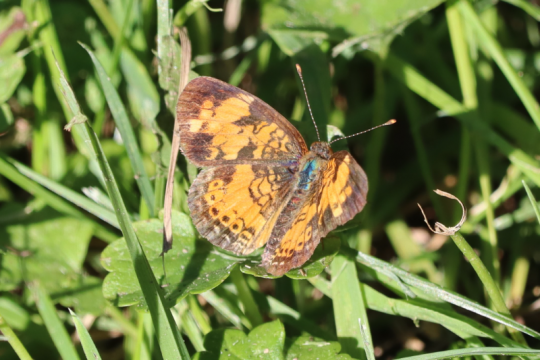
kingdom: Animalia
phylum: Arthropoda
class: Insecta
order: Lepidoptera
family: Nymphalidae
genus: Phyciodes
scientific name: Phyciodes
